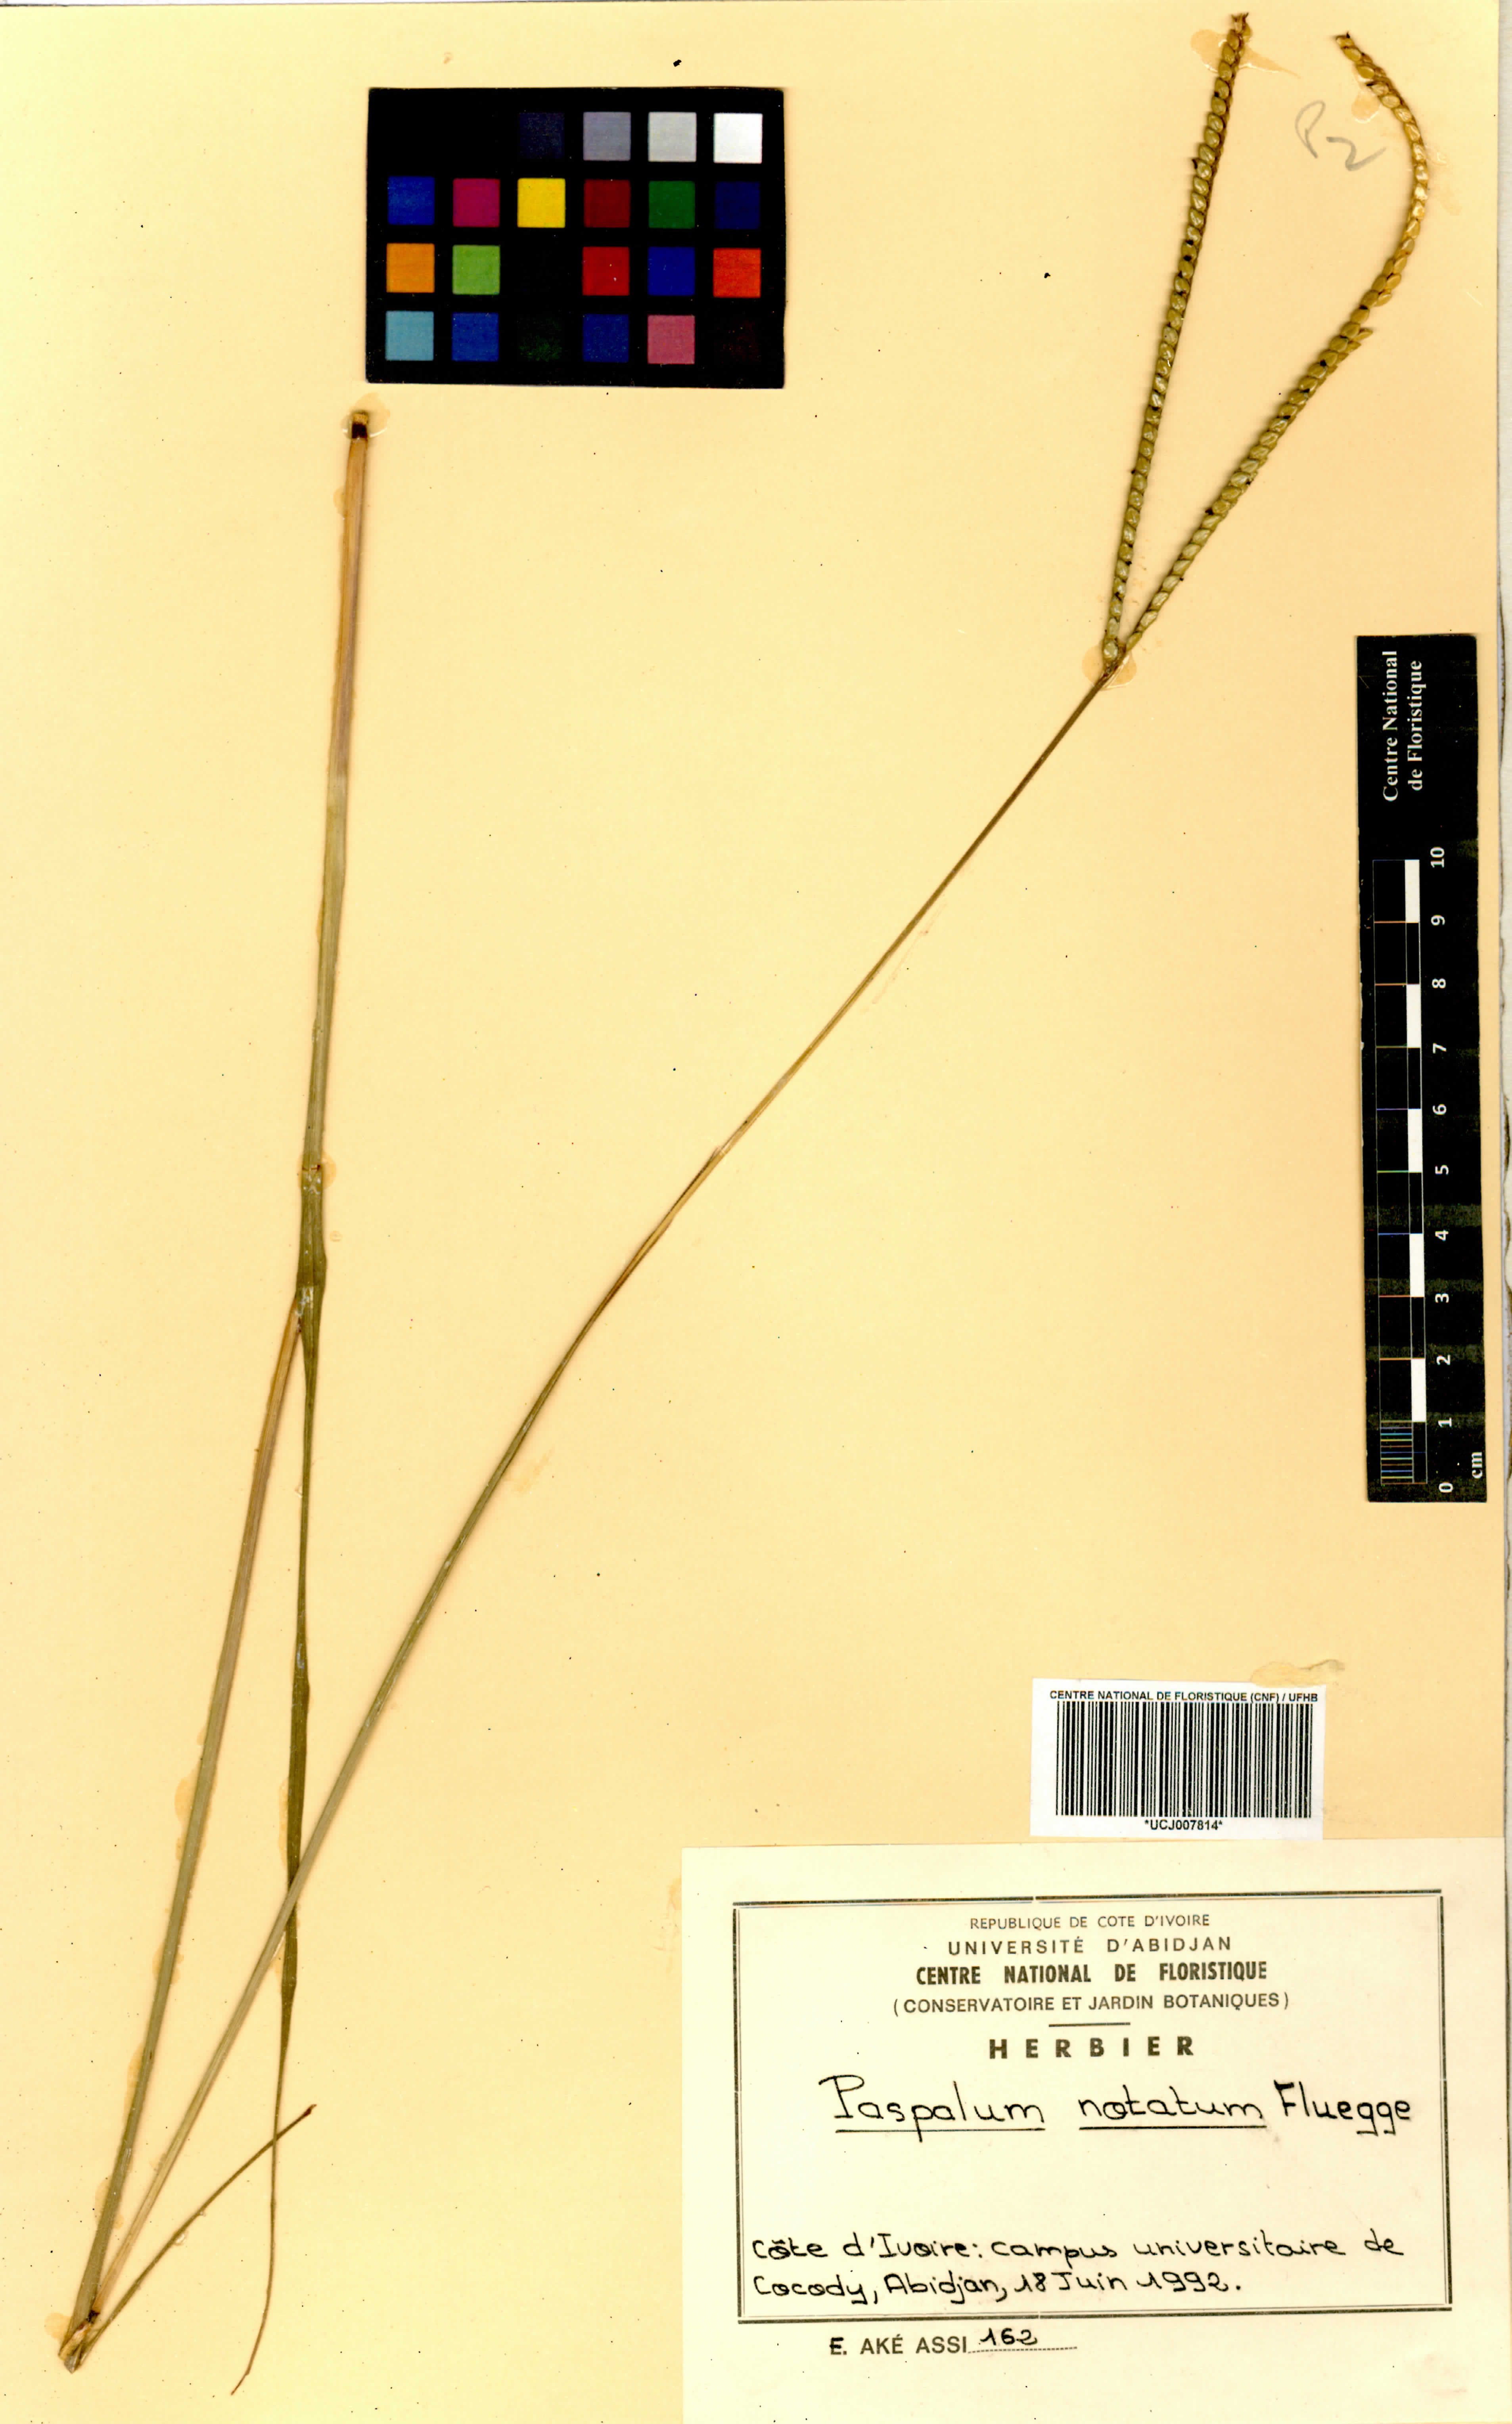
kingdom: Plantae
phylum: Tracheophyta
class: Liliopsida
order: Poales
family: Poaceae
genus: Paspalum
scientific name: Paspalum notatum
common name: Bahiagrass
